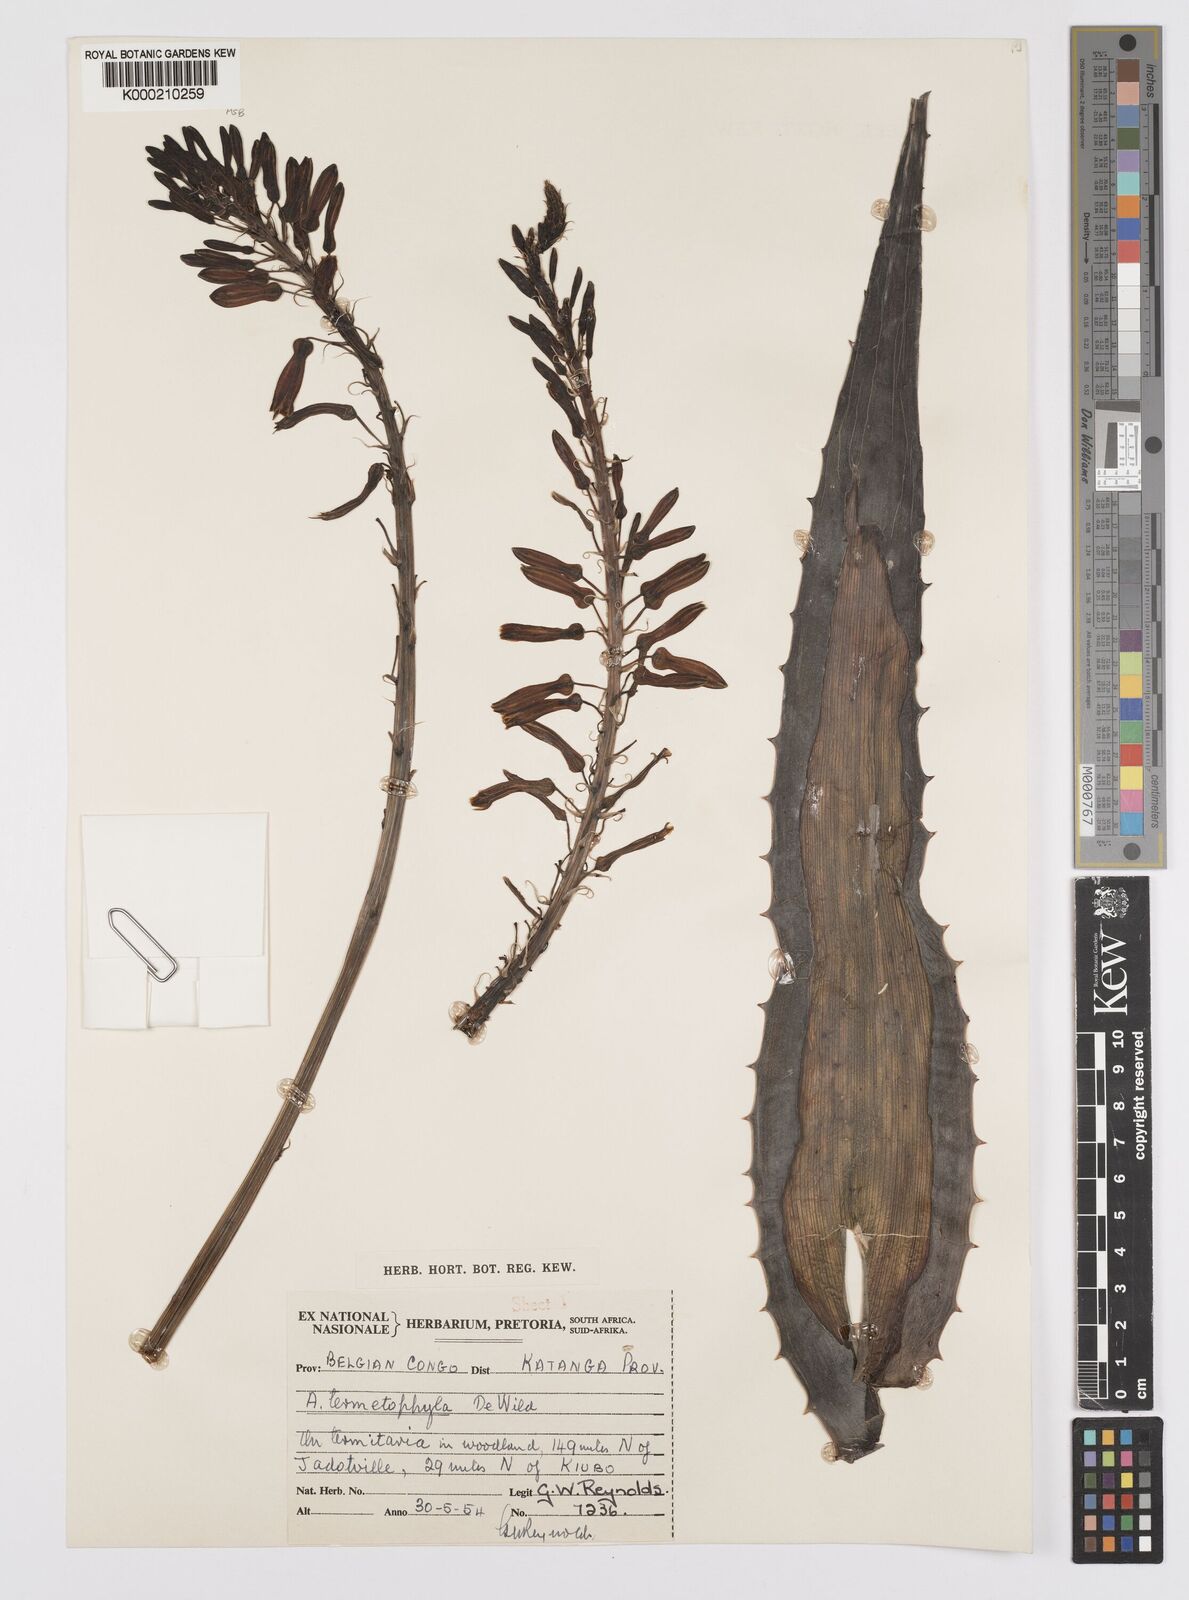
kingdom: Plantae
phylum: Tracheophyta
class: Liliopsida
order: Asparagales
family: Asphodelaceae
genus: Aloe
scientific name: Aloe greatheadii
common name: Greathead's aloe
